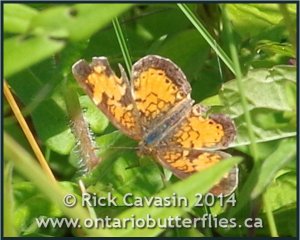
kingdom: Animalia
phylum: Arthropoda
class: Insecta
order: Lepidoptera
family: Nymphalidae
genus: Phyciodes
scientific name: Phyciodes tharos
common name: Northern Crescent
